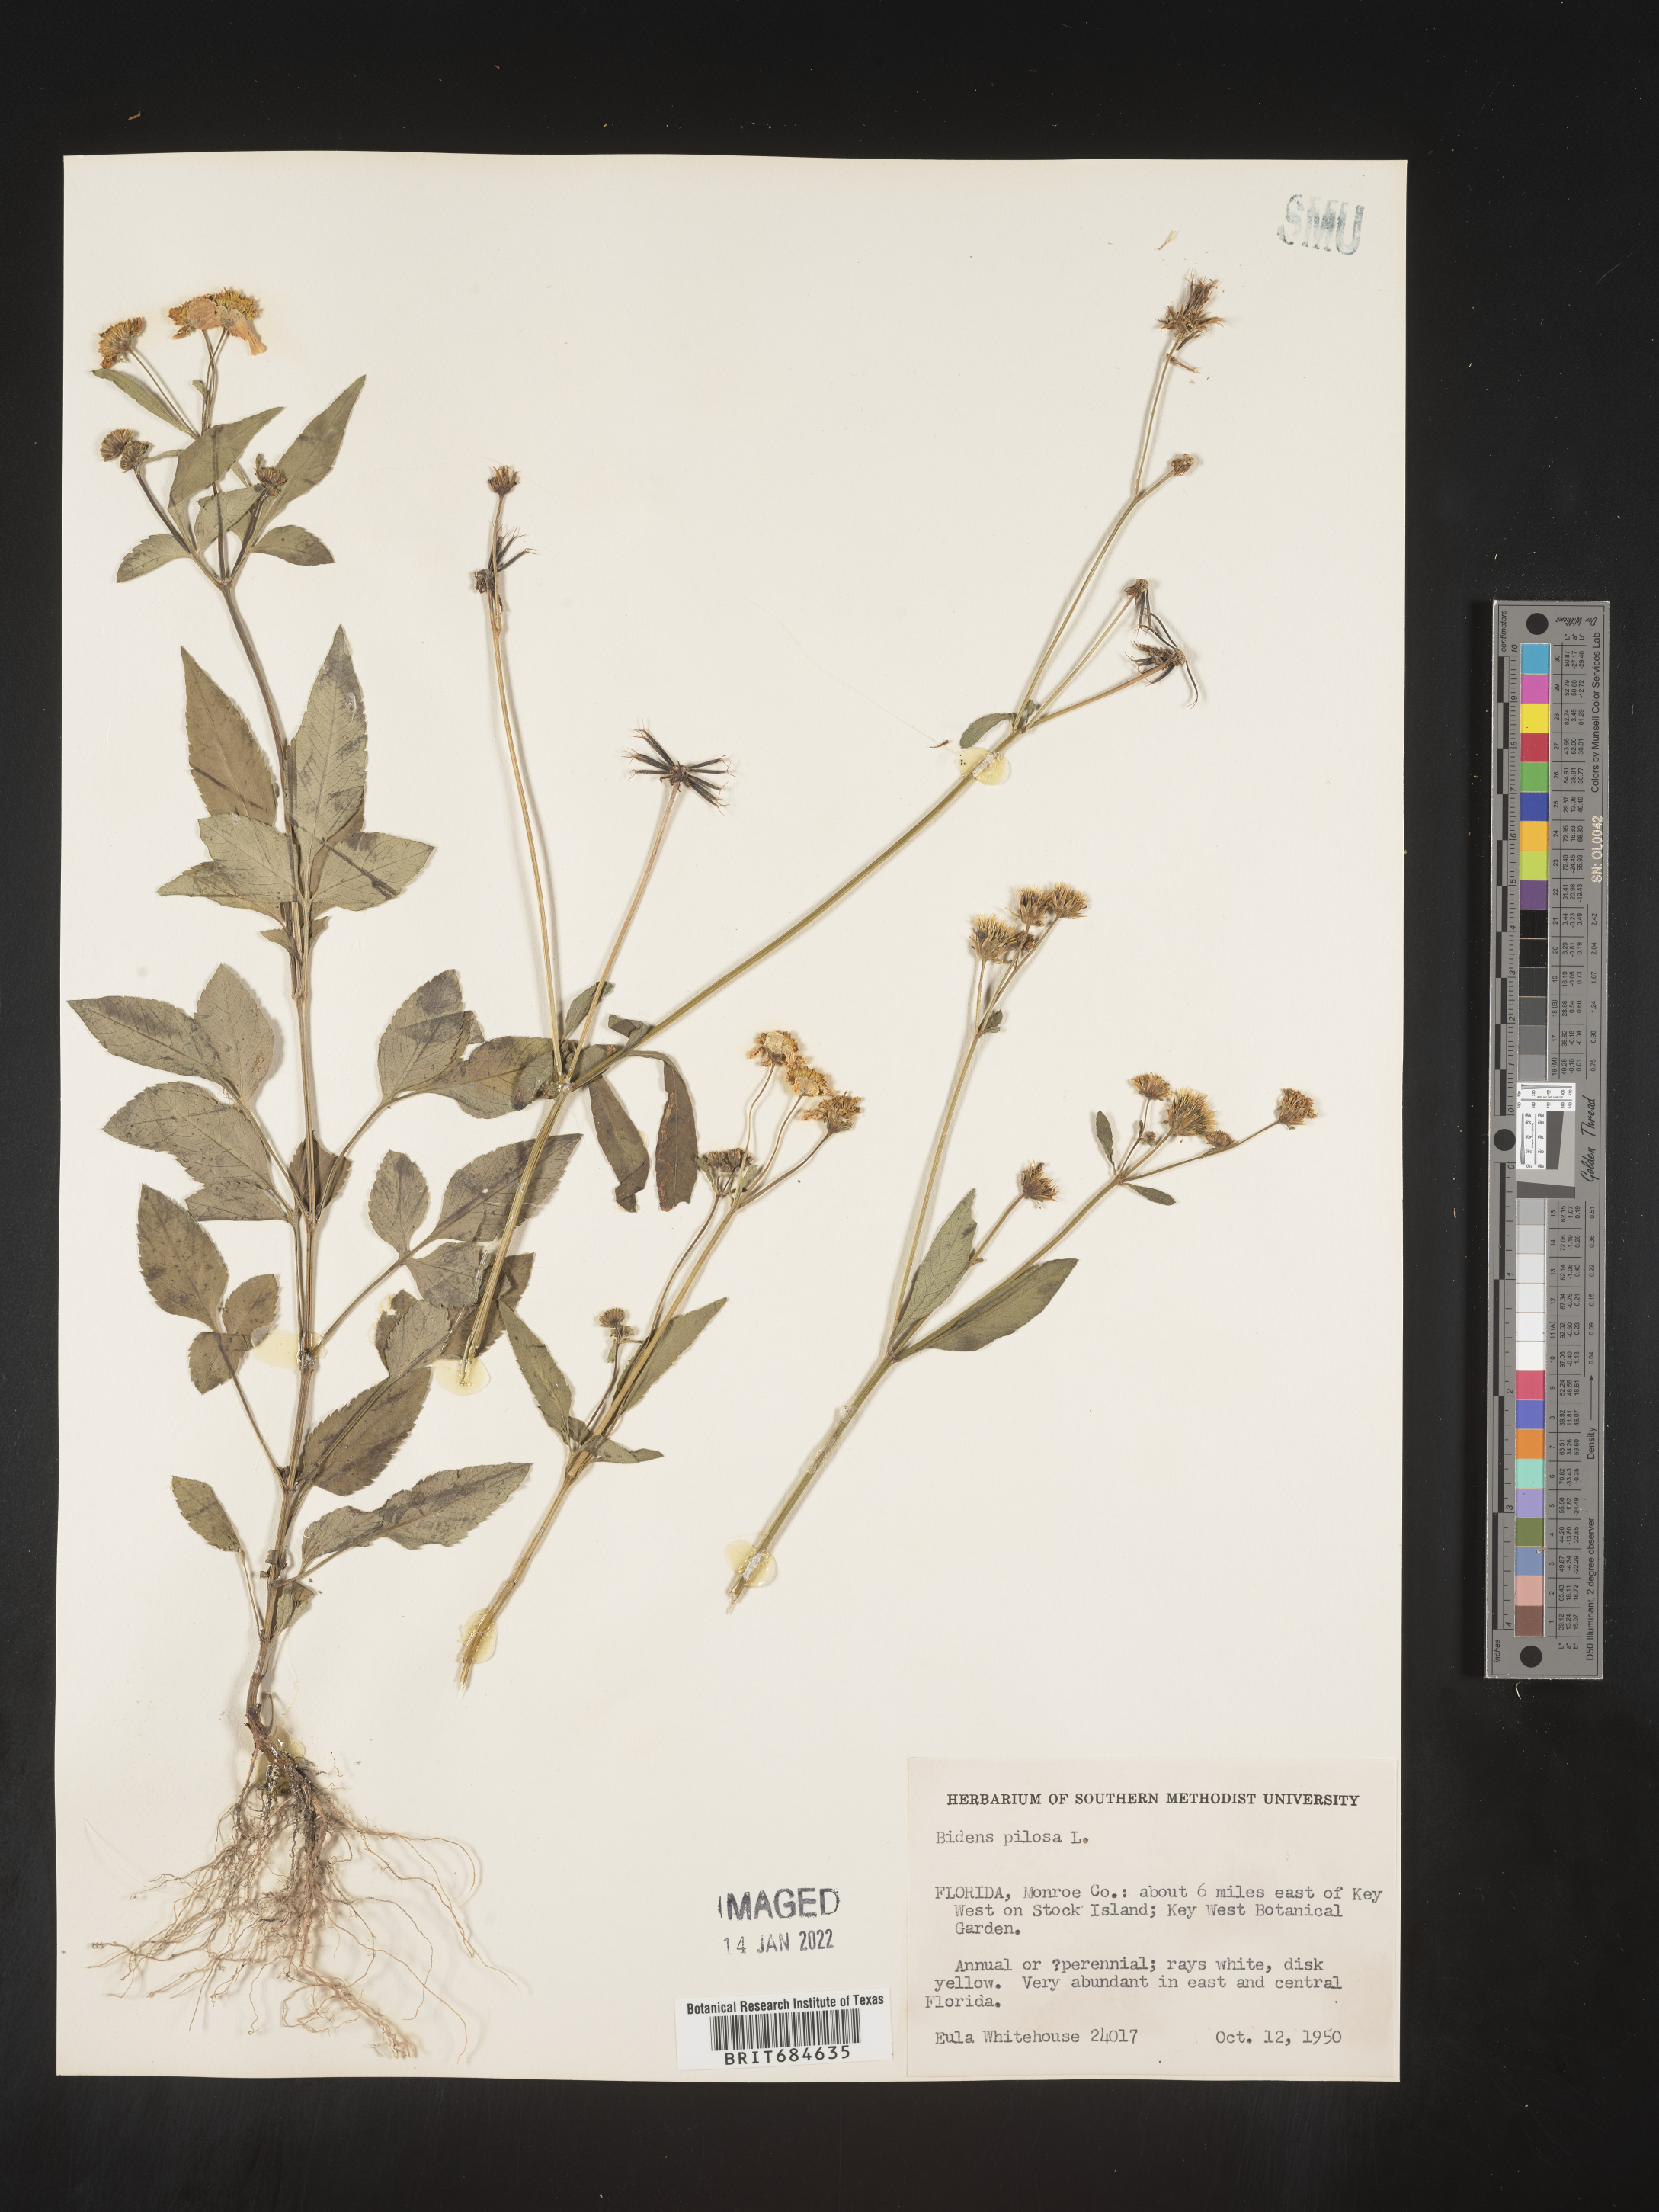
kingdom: Plantae
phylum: Tracheophyta
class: Magnoliopsida
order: Asterales
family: Asteraceae
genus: Bidens
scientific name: Bidens pilosa
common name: Black-jack
